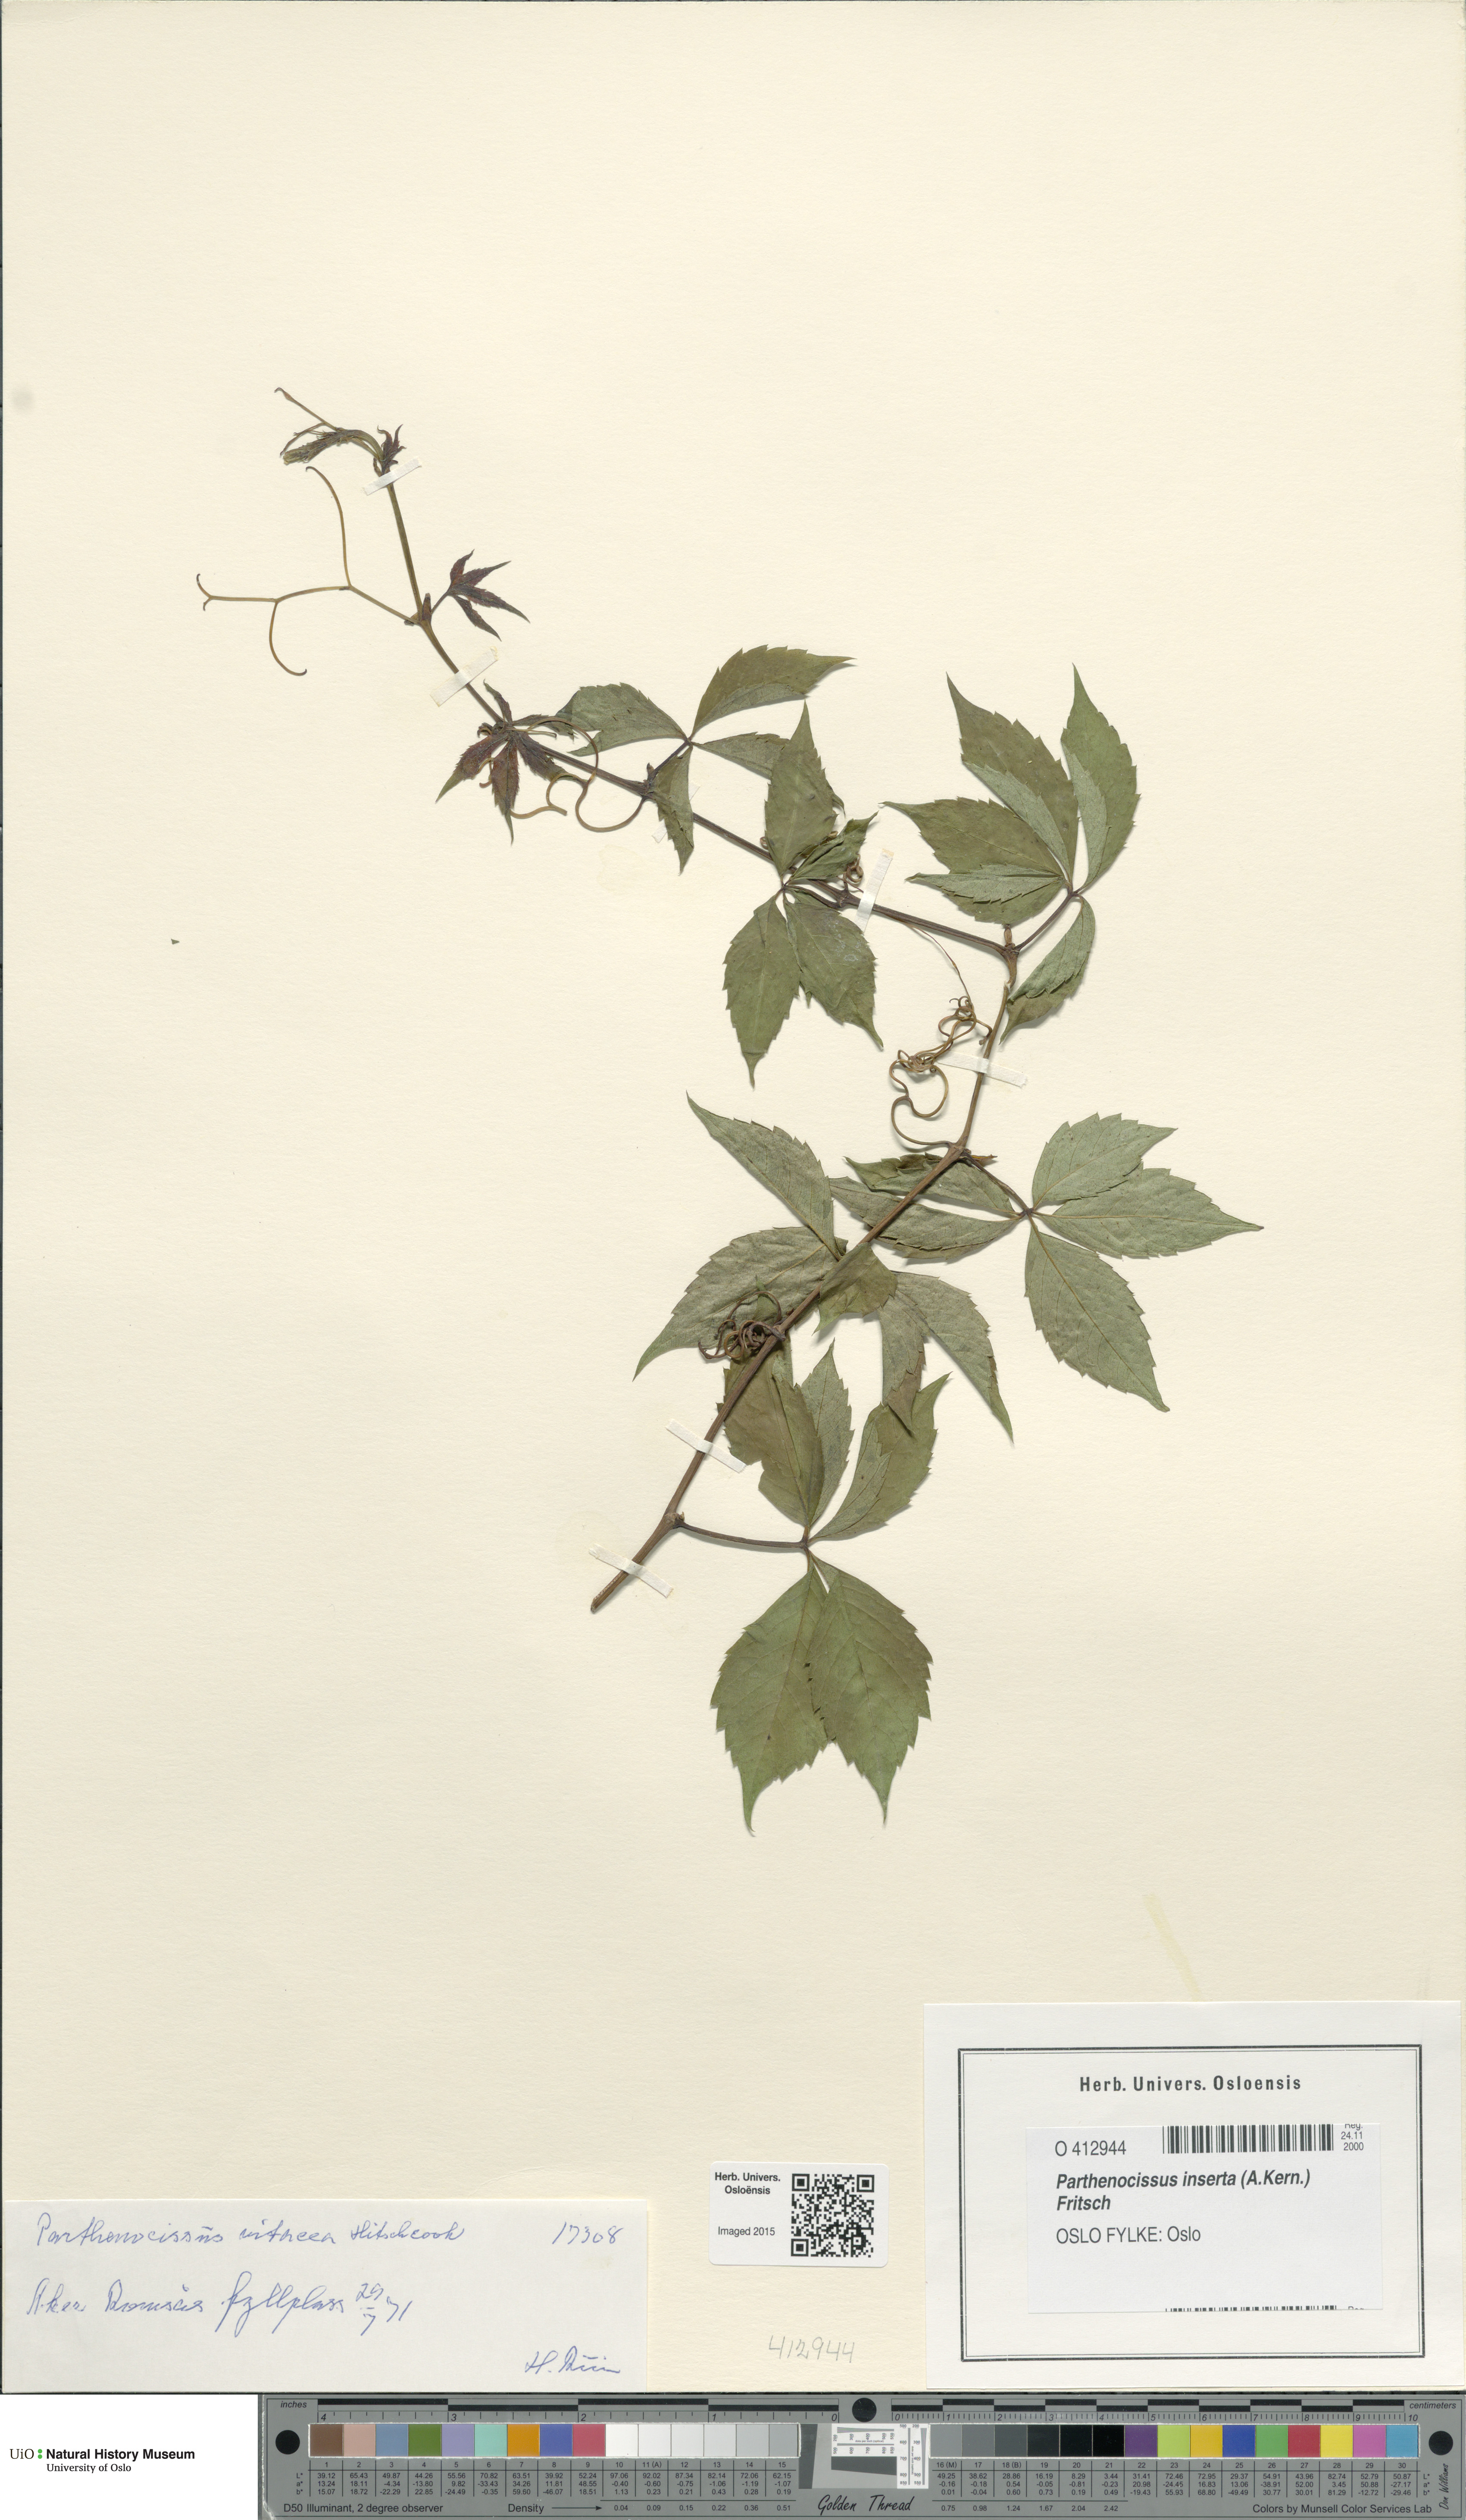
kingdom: Plantae
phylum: Tracheophyta
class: Magnoliopsida
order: Vitales
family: Vitaceae
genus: Parthenocissus
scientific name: Parthenocissus inserta
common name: False virginia-creeper
